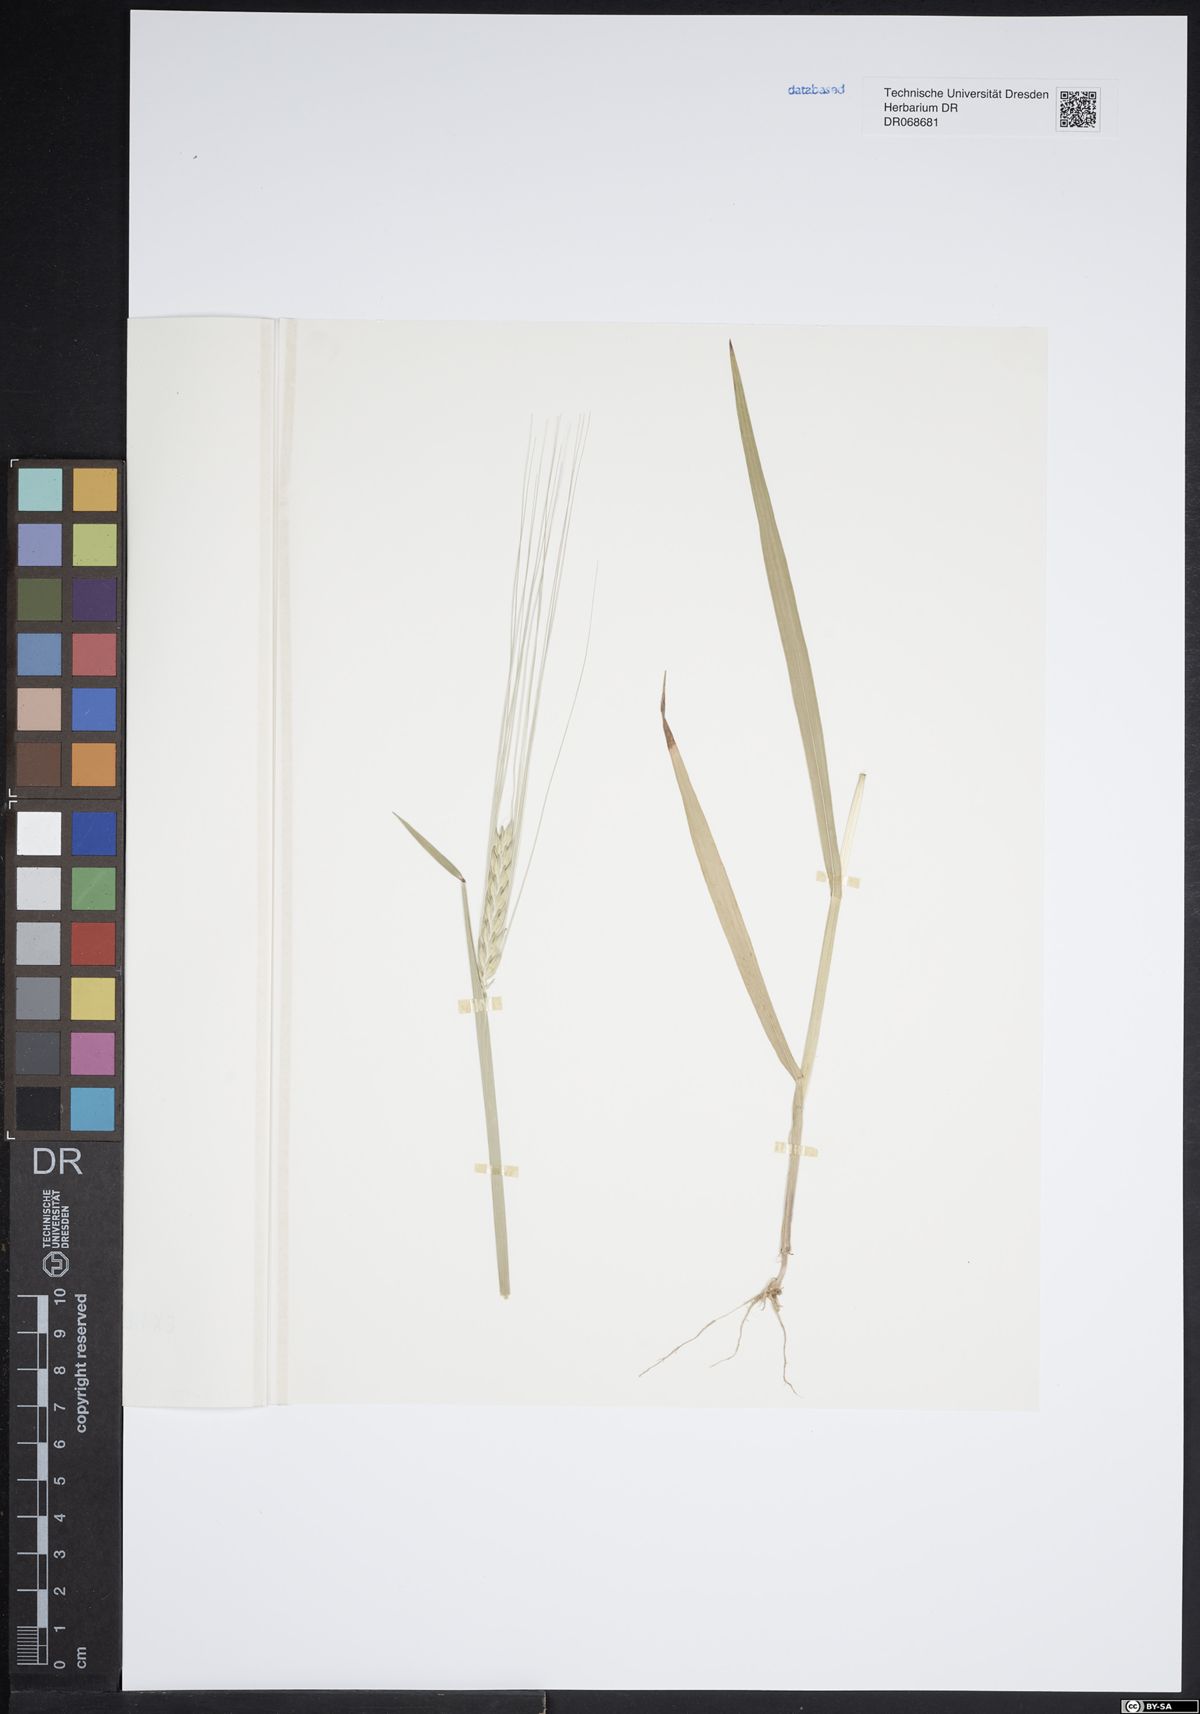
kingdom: Plantae
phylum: Tracheophyta
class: Liliopsida
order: Poales
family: Poaceae
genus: Hordeum
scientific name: Hordeum distichon
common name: Two-rowed barley
